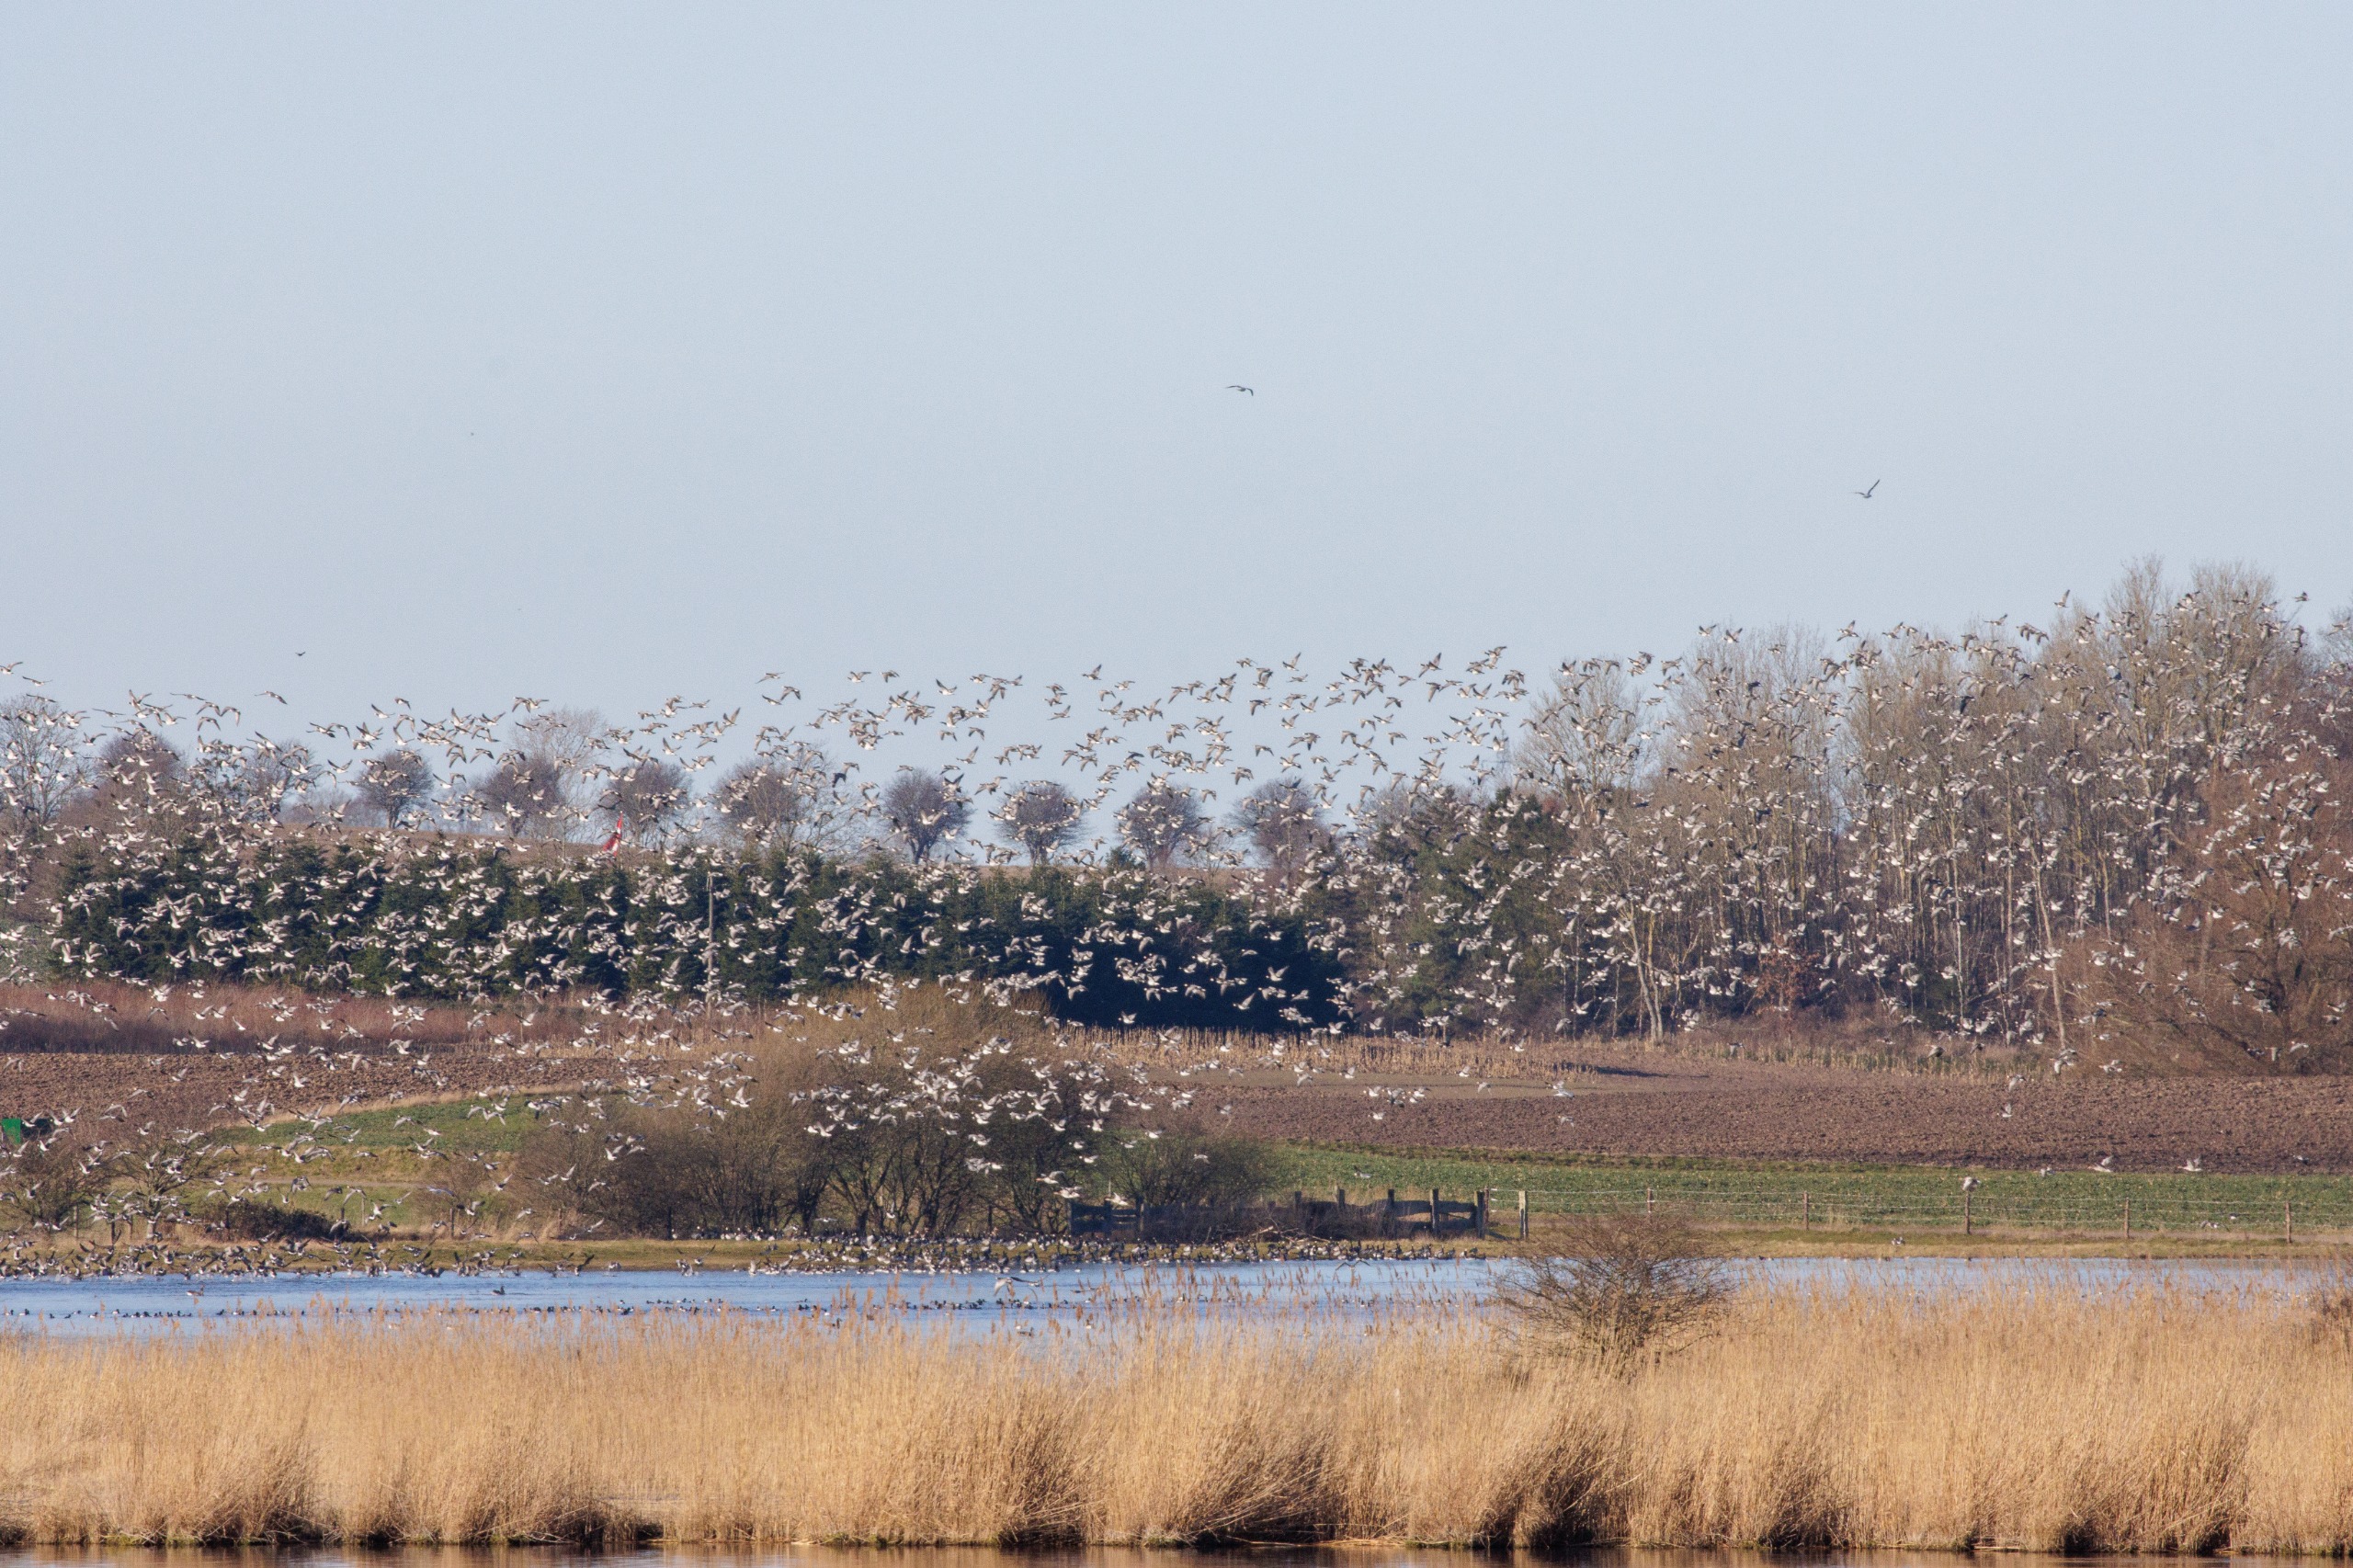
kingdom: Animalia
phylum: Chordata
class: Aves
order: Anseriformes
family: Anatidae
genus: Branta
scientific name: Branta leucopsis
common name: Bramgås
